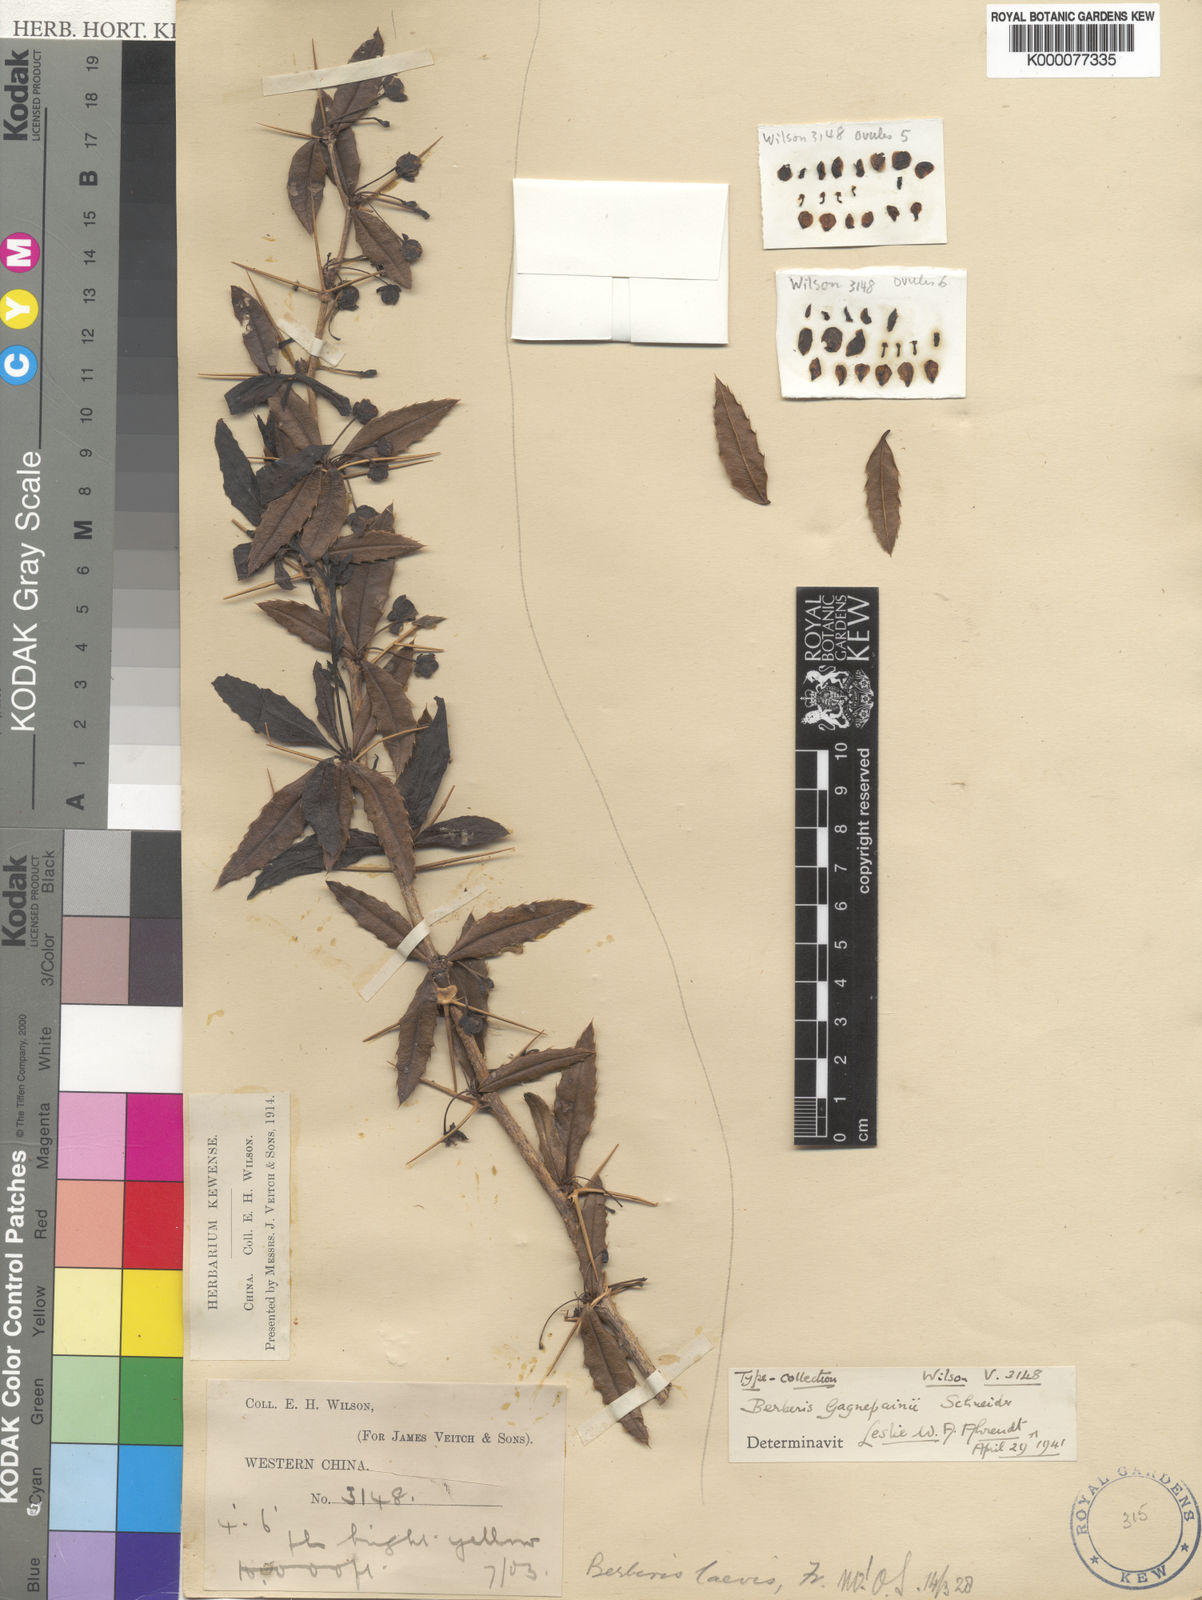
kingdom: Plantae
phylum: Tracheophyta
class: Magnoliopsida
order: Ranunculales
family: Berberidaceae
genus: Berberis
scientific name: Berberis gagnepainii
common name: Gagnepain's barberry
